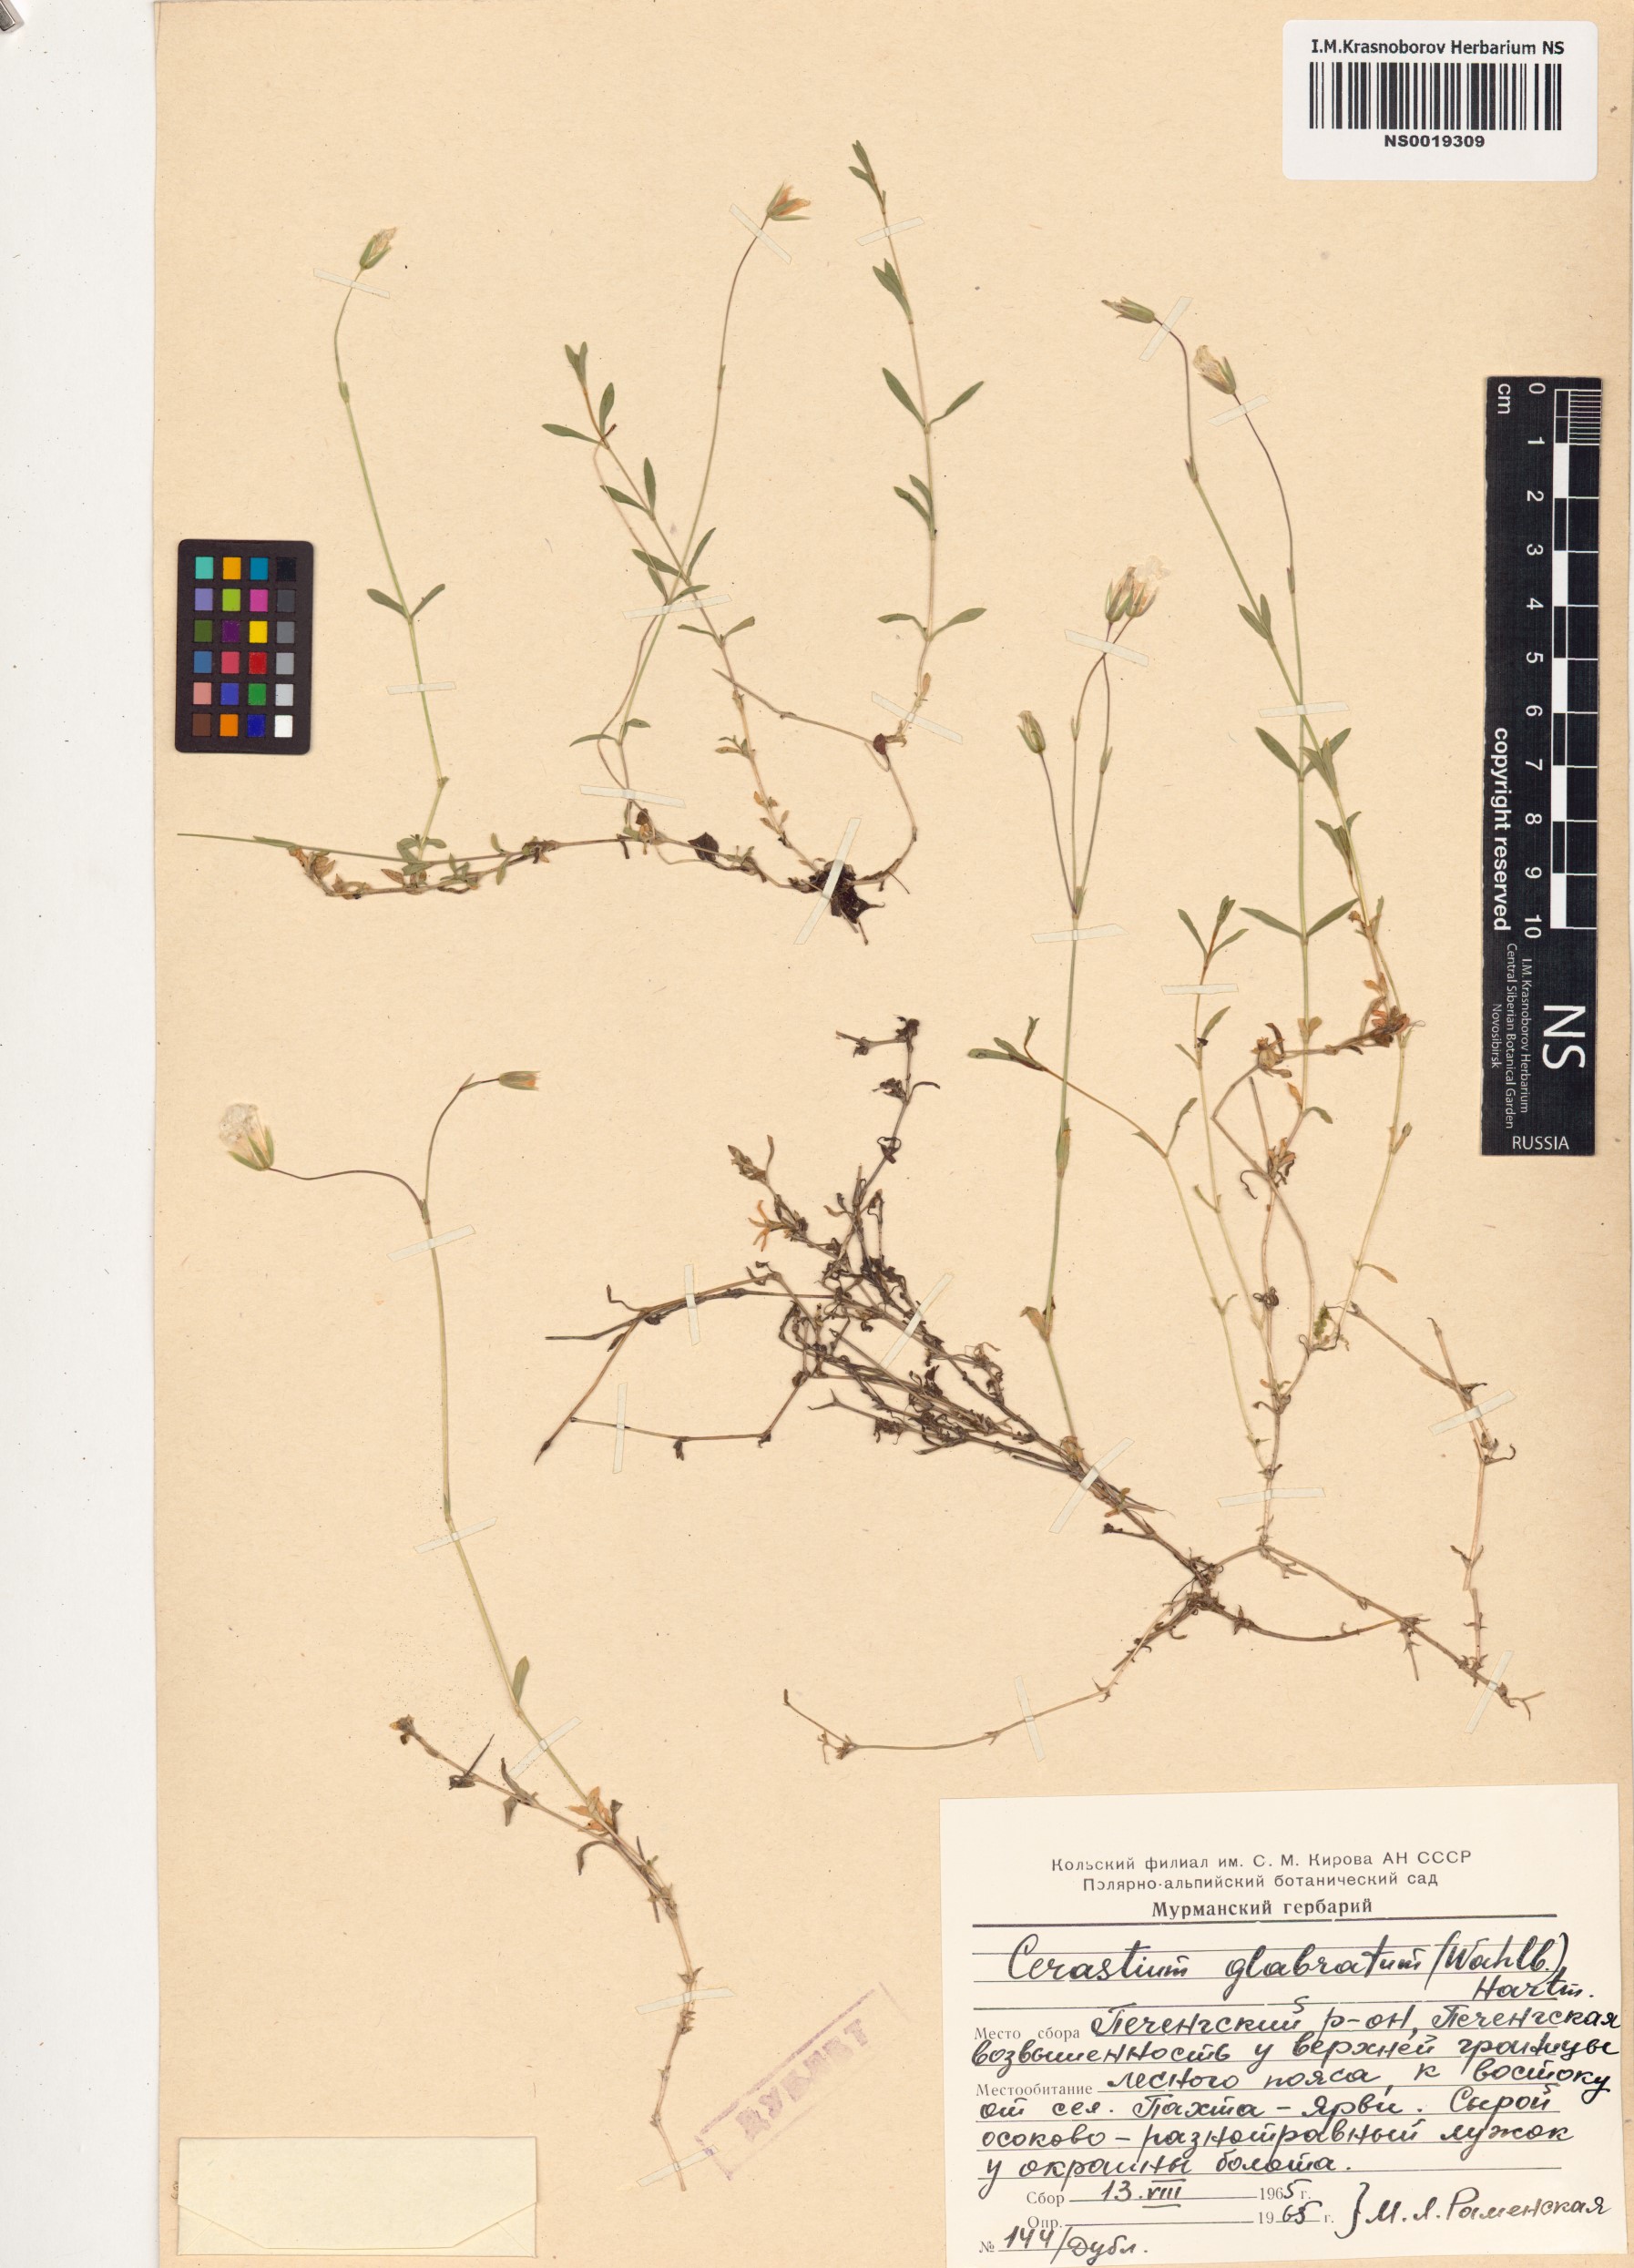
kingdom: Plantae
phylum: Tracheophyta
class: Magnoliopsida
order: Caryophyllales
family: Caryophyllaceae
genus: Cerastium
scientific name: Cerastium alpinum
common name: Alpine mouse-ear
